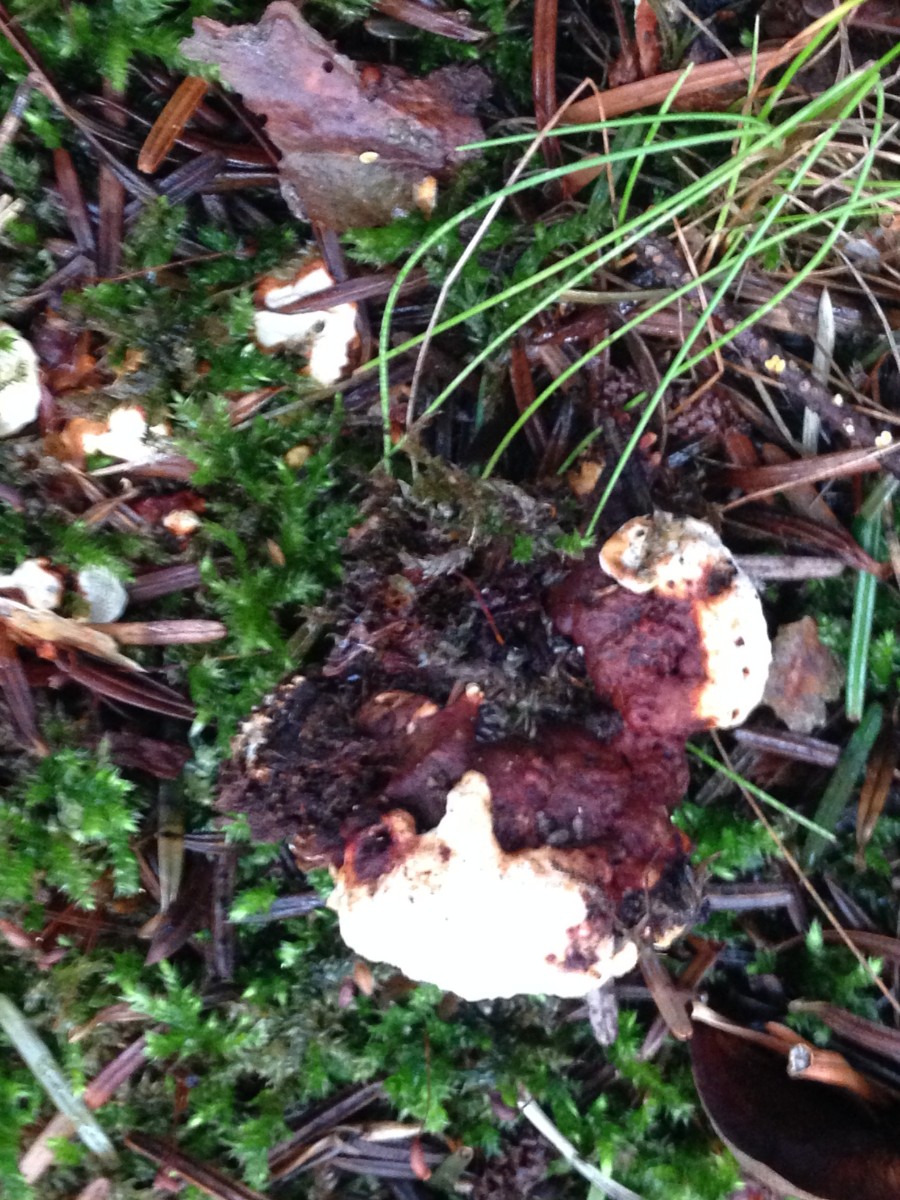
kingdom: Fungi
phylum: Basidiomycota
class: Agaricomycetes
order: Russulales
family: Bondarzewiaceae
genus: Heterobasidion
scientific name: Heterobasidion annosum
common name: almindelig rodfordærver
